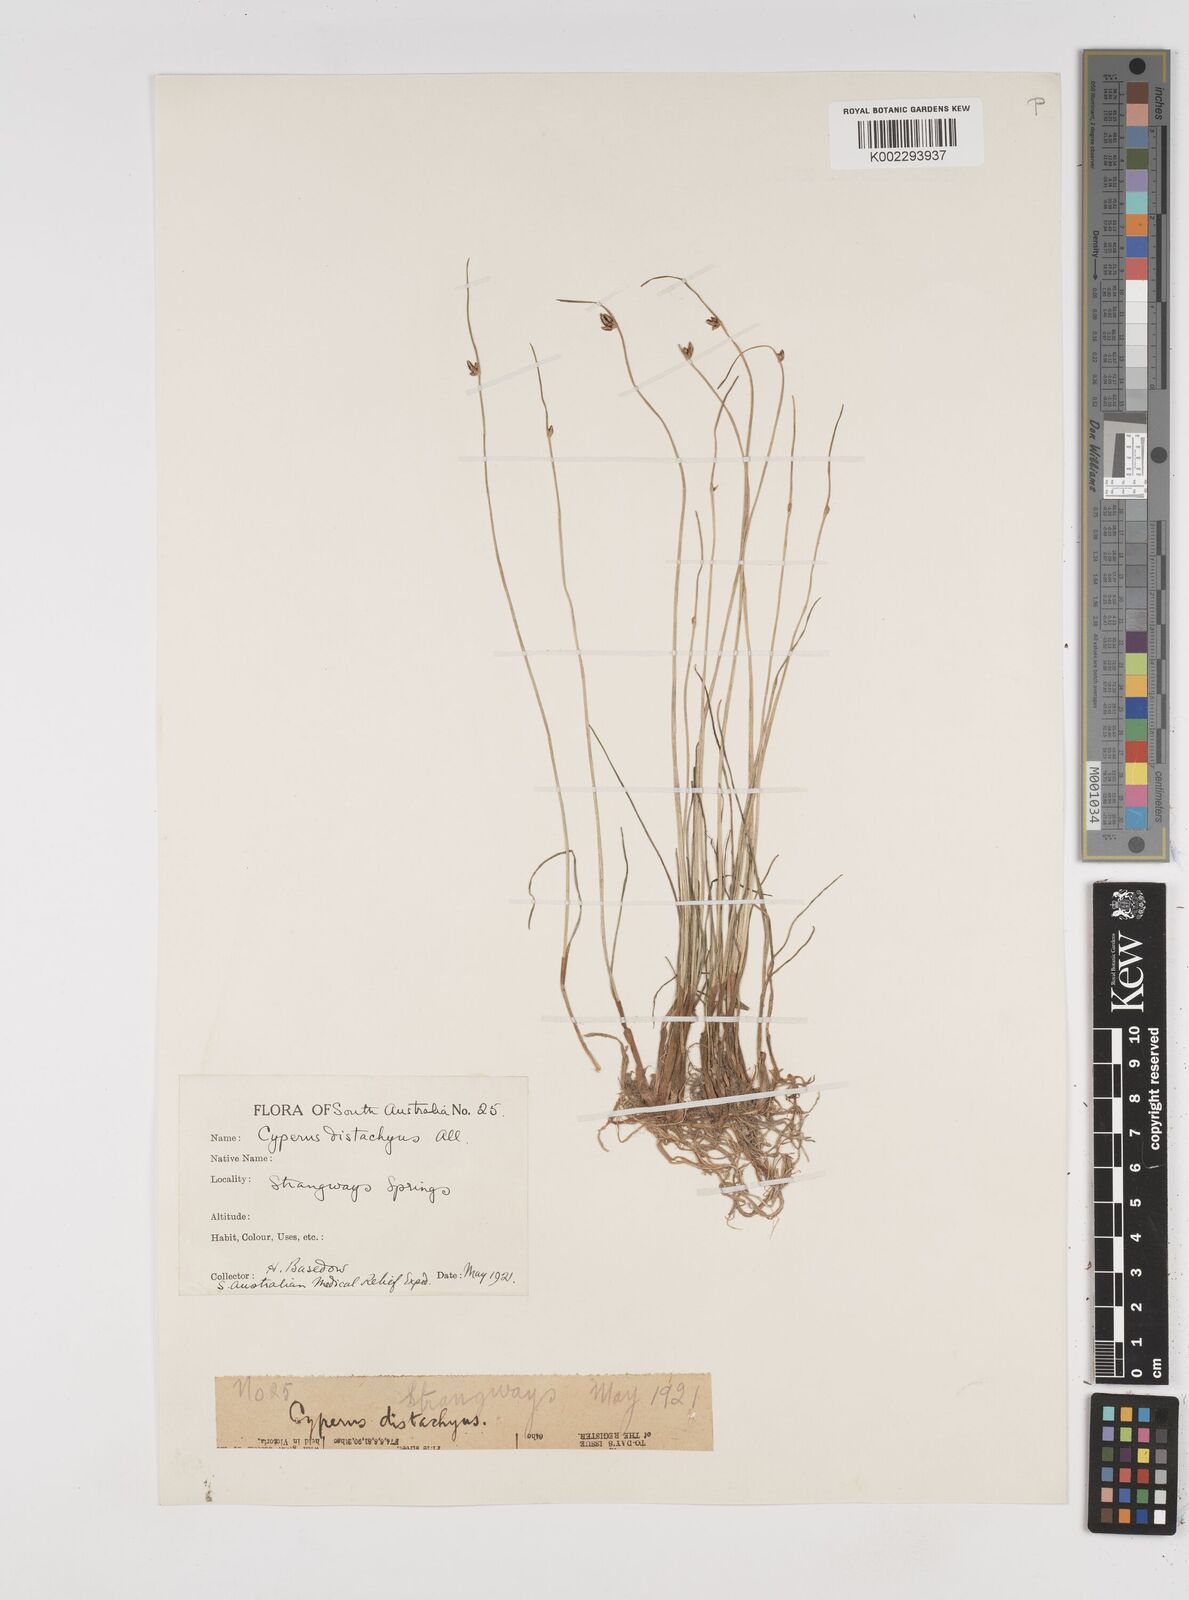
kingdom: Plantae
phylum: Tracheophyta
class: Liliopsida
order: Poales
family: Cyperaceae
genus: Cyperus
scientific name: Cyperus laevigatus
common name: Smooth flat sedge
